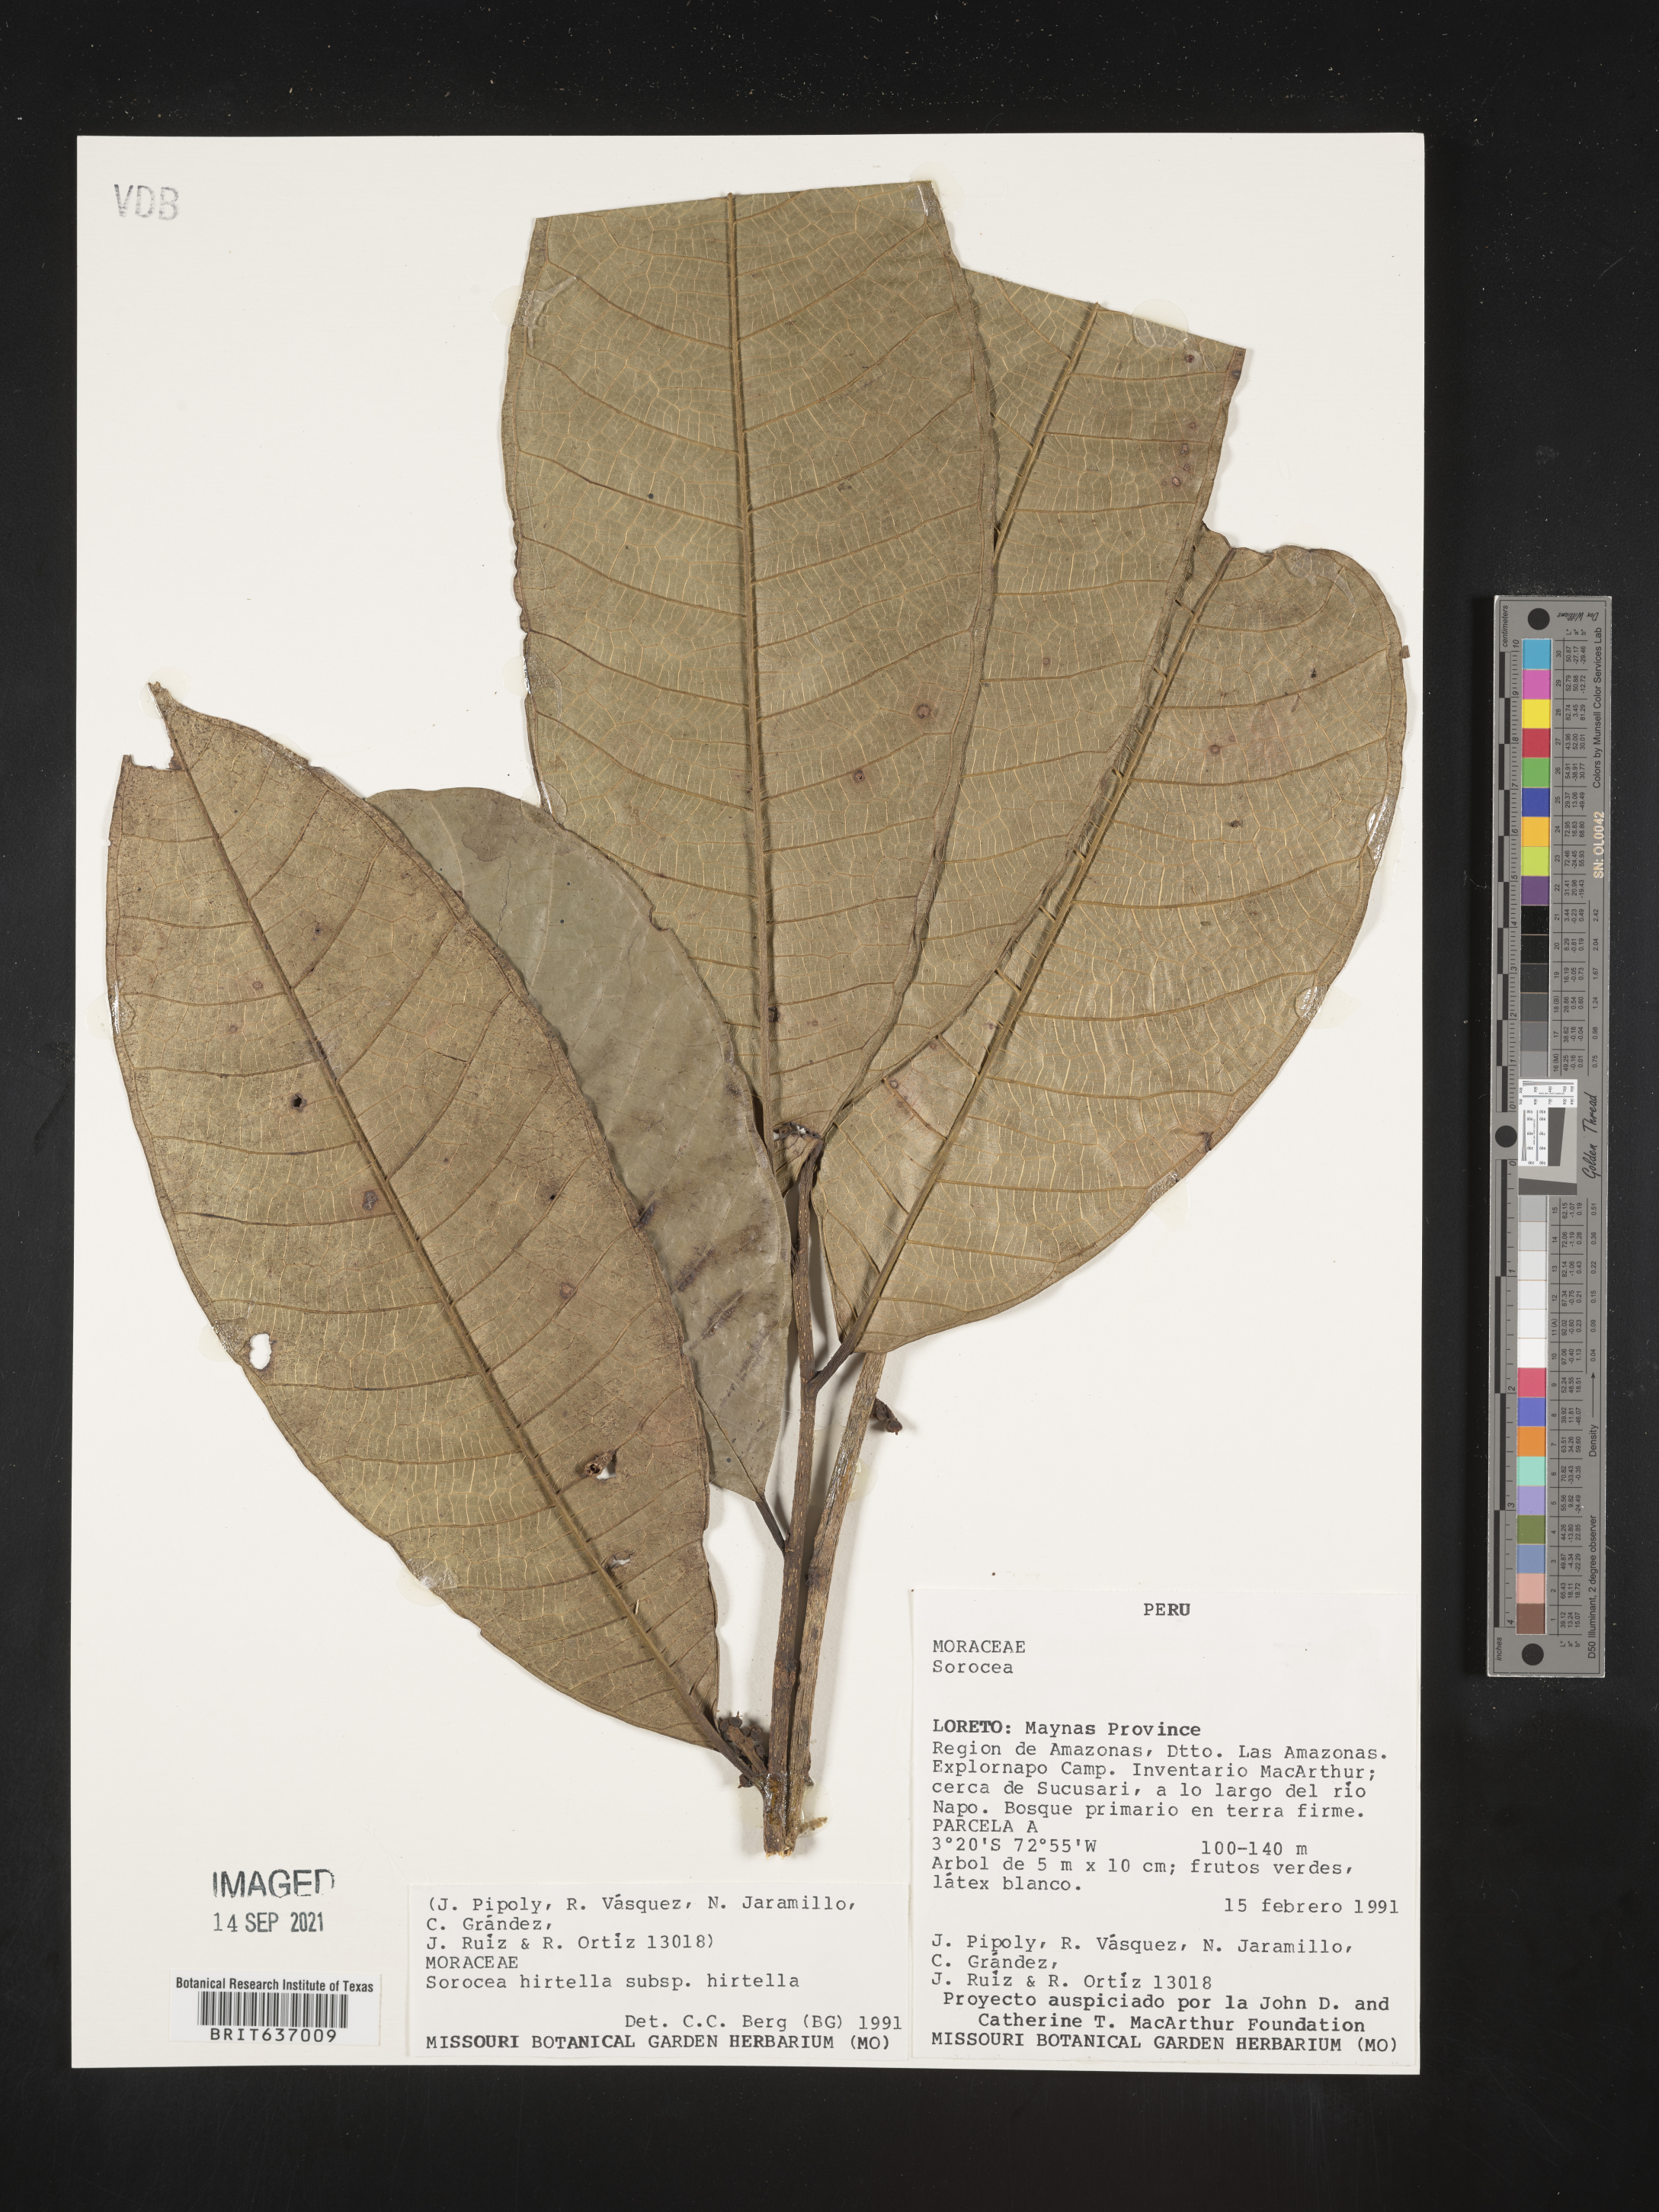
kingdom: Plantae
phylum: Tracheophyta
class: Magnoliopsida
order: Rosales
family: Moraceae
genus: Sorocea
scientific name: Sorocea
